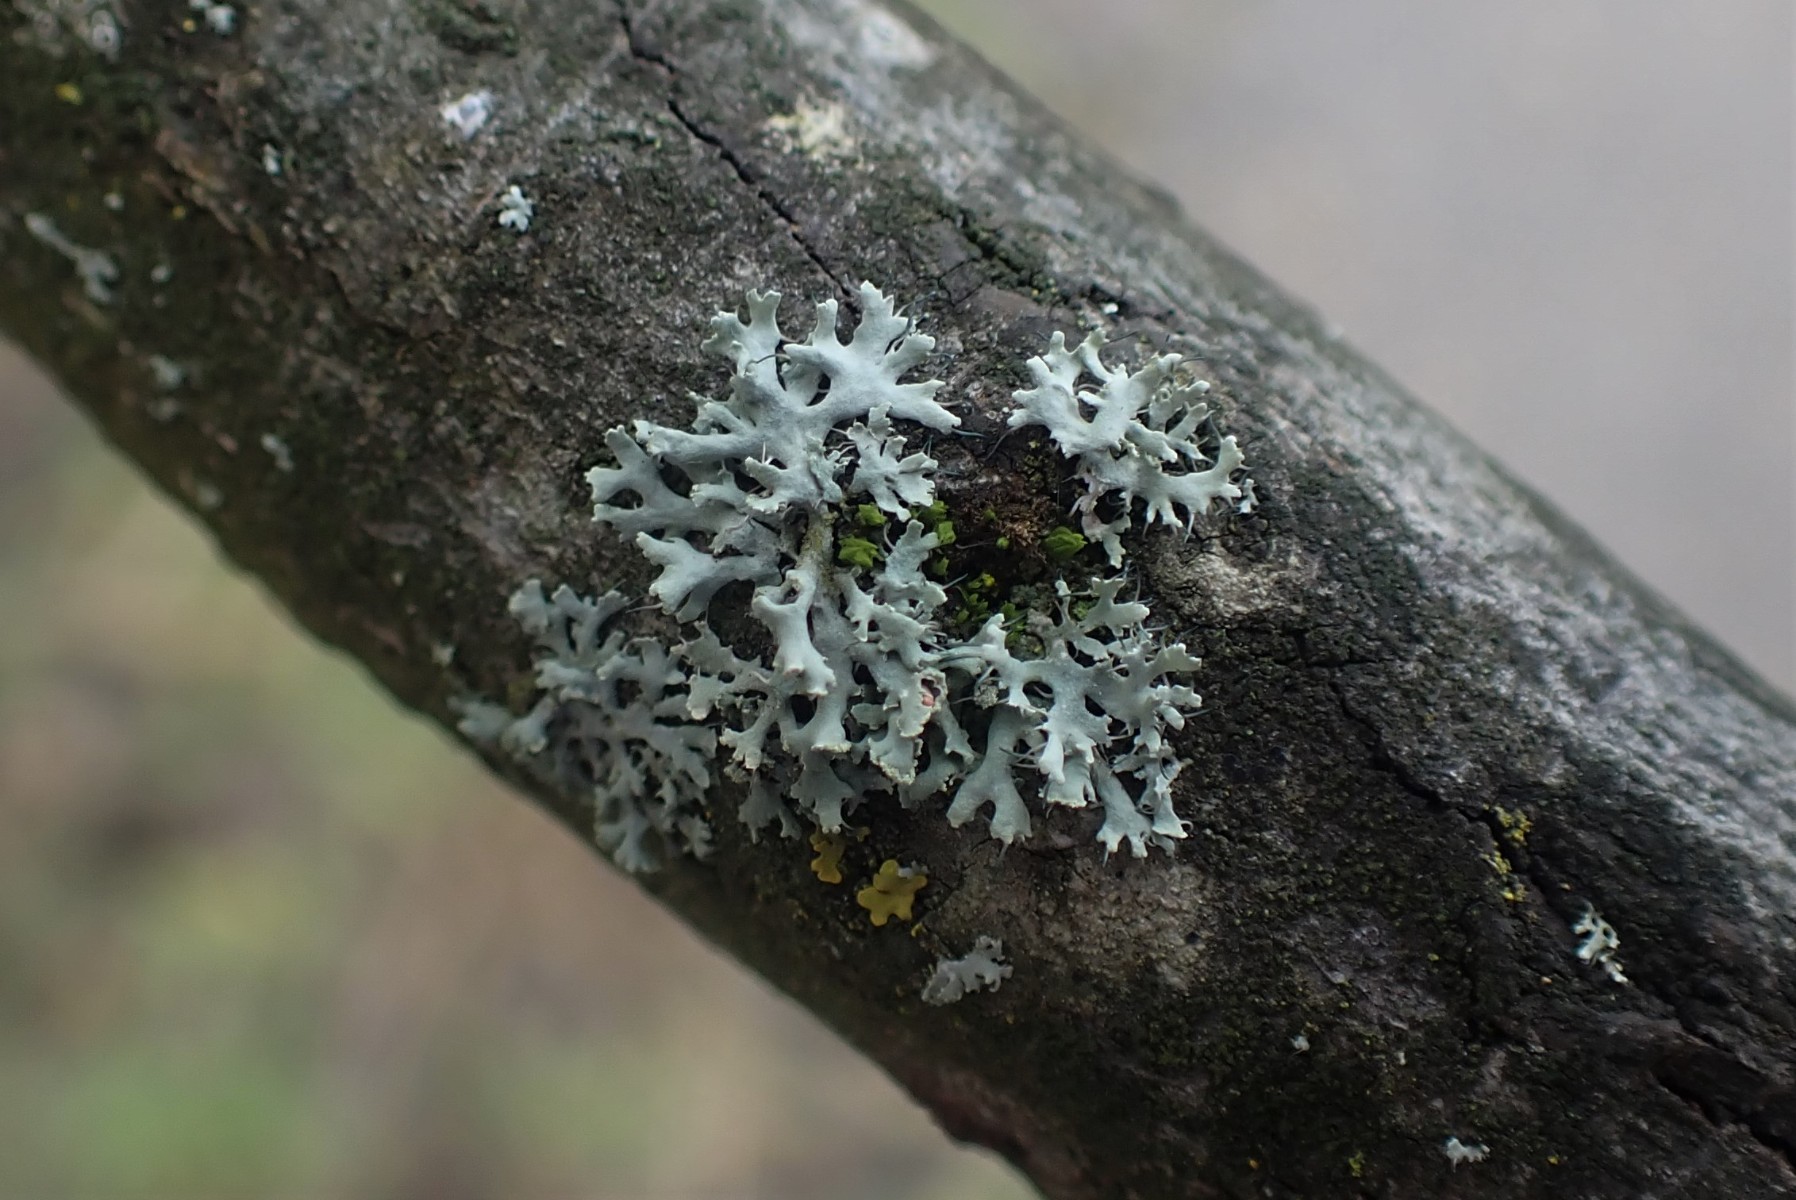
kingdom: Fungi
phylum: Ascomycota
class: Lecanoromycetes
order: Caliciales
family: Physciaceae
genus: Physcia
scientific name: Physcia tenella
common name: spæd rosetlav
